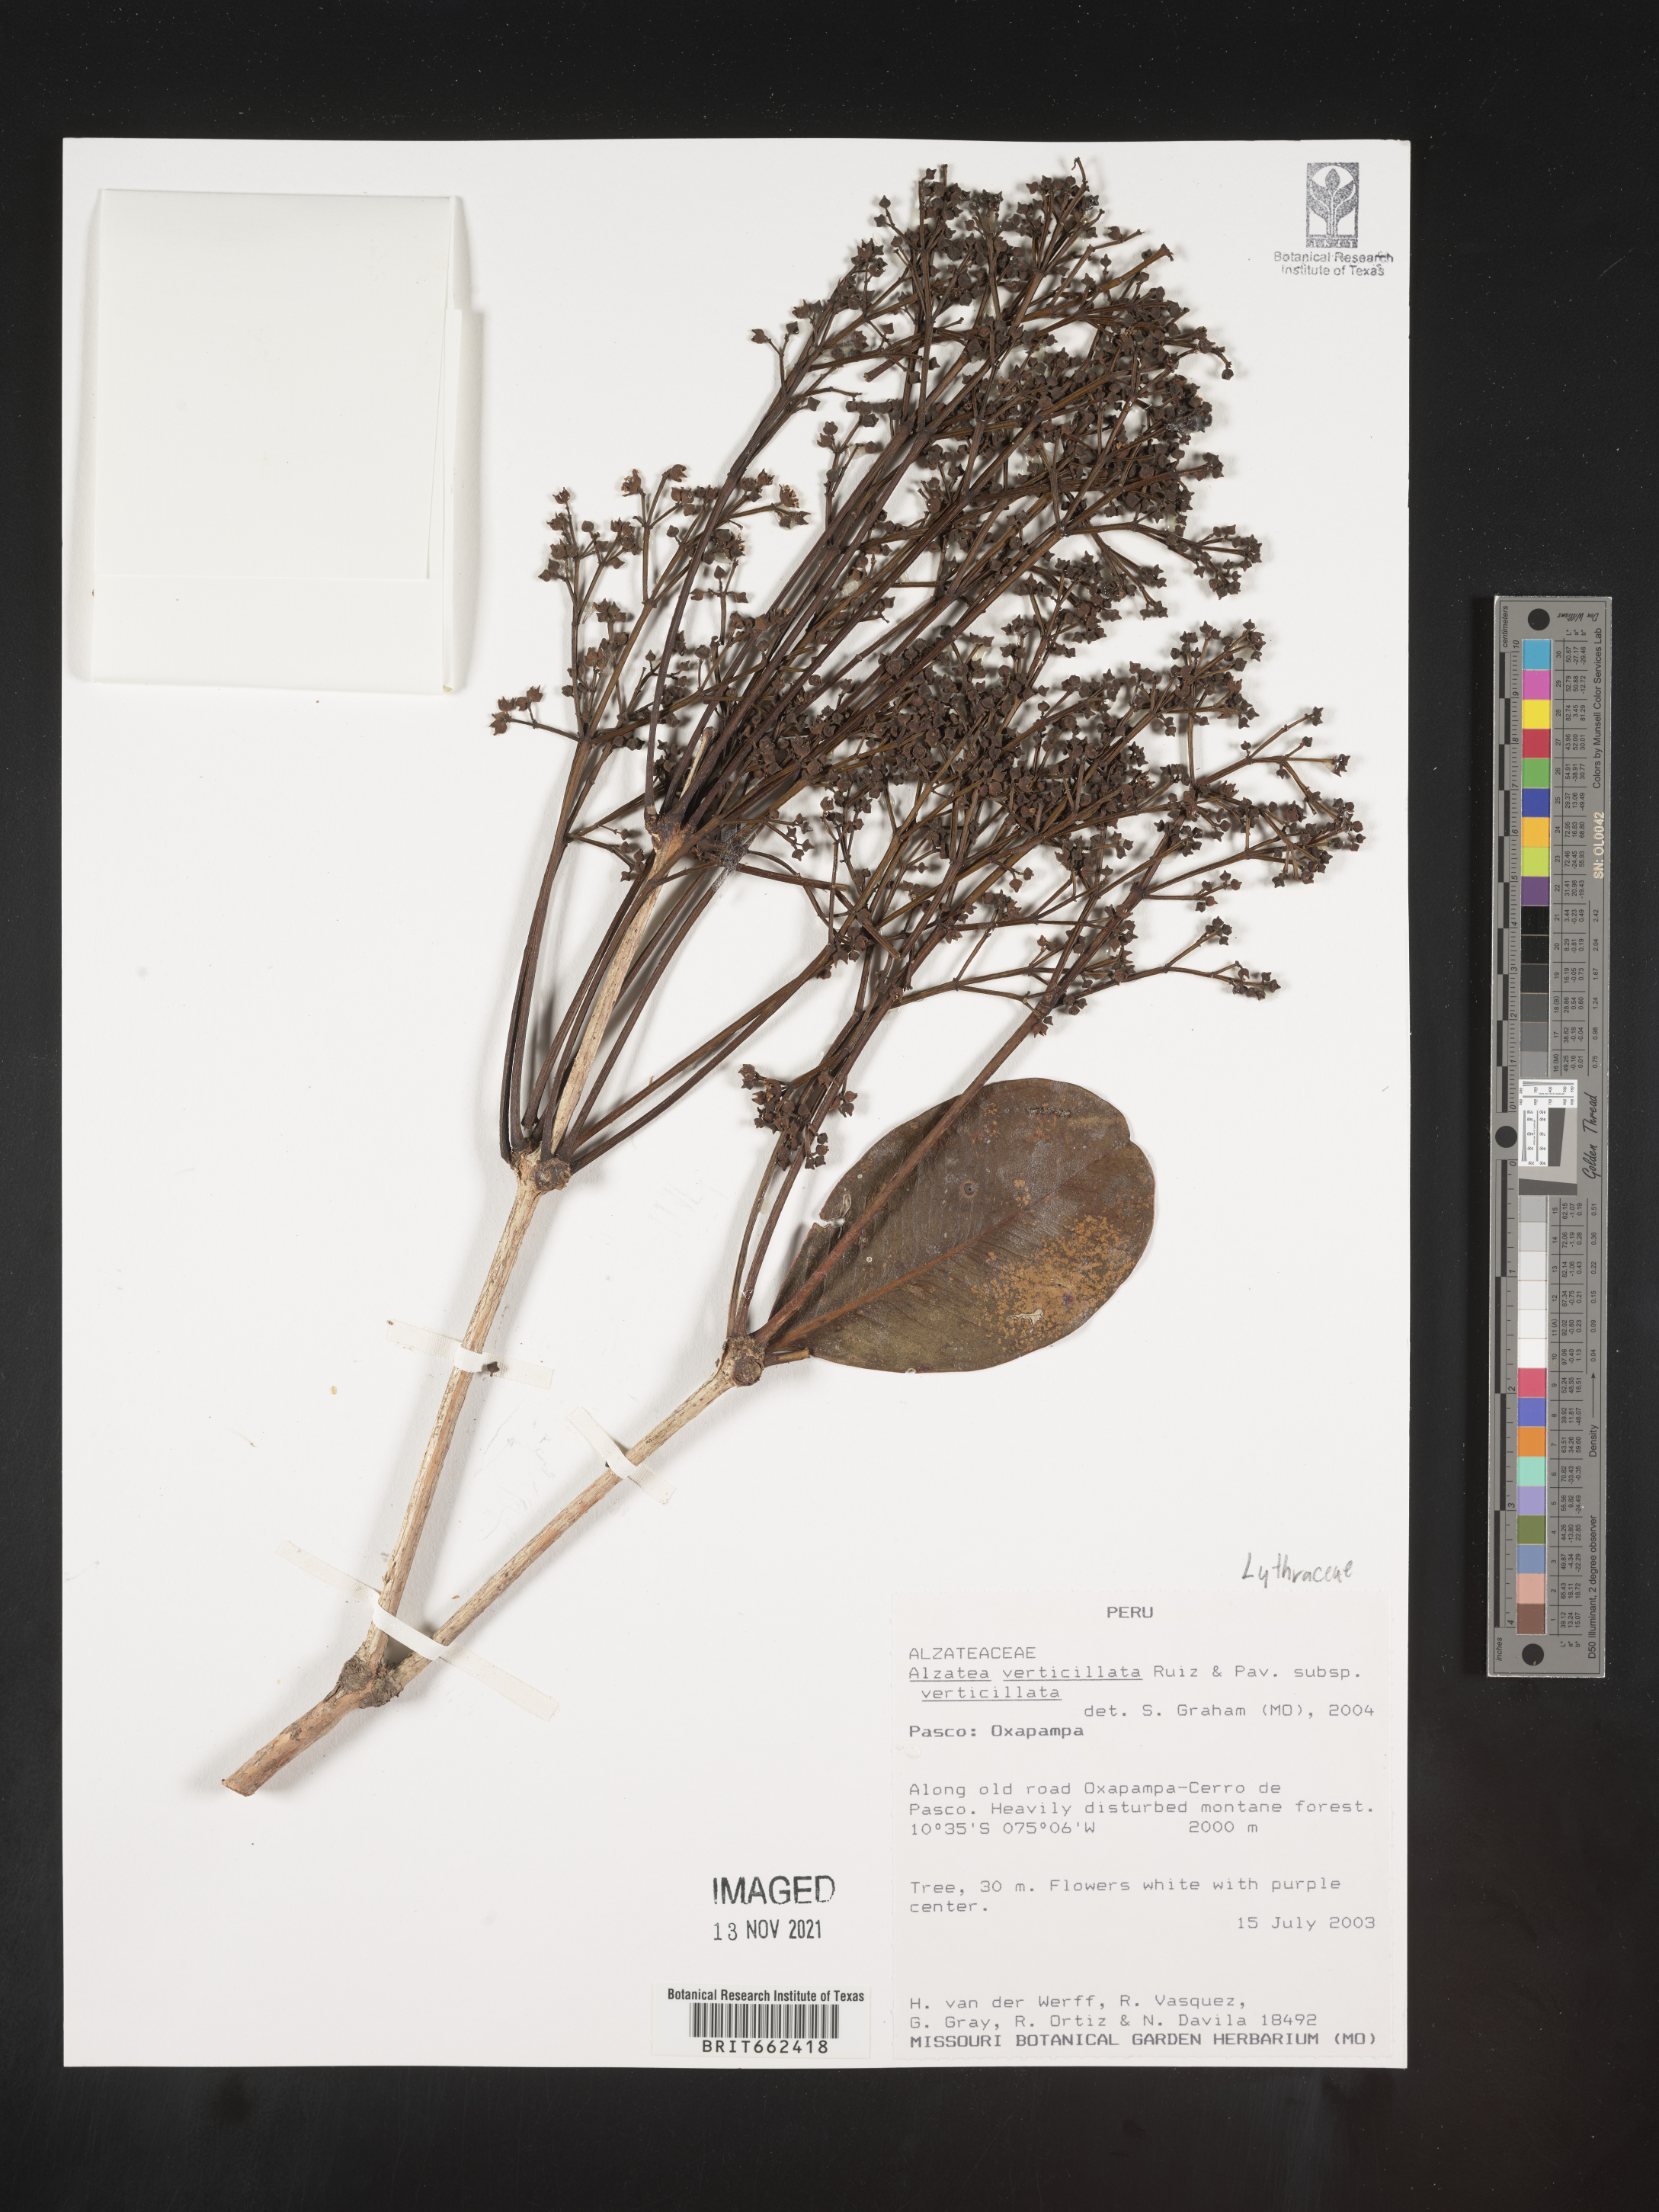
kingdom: Plantae
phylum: Tracheophyta
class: Magnoliopsida
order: Myrtales
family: Alzateaceae
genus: Alzatea
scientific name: Alzatea
